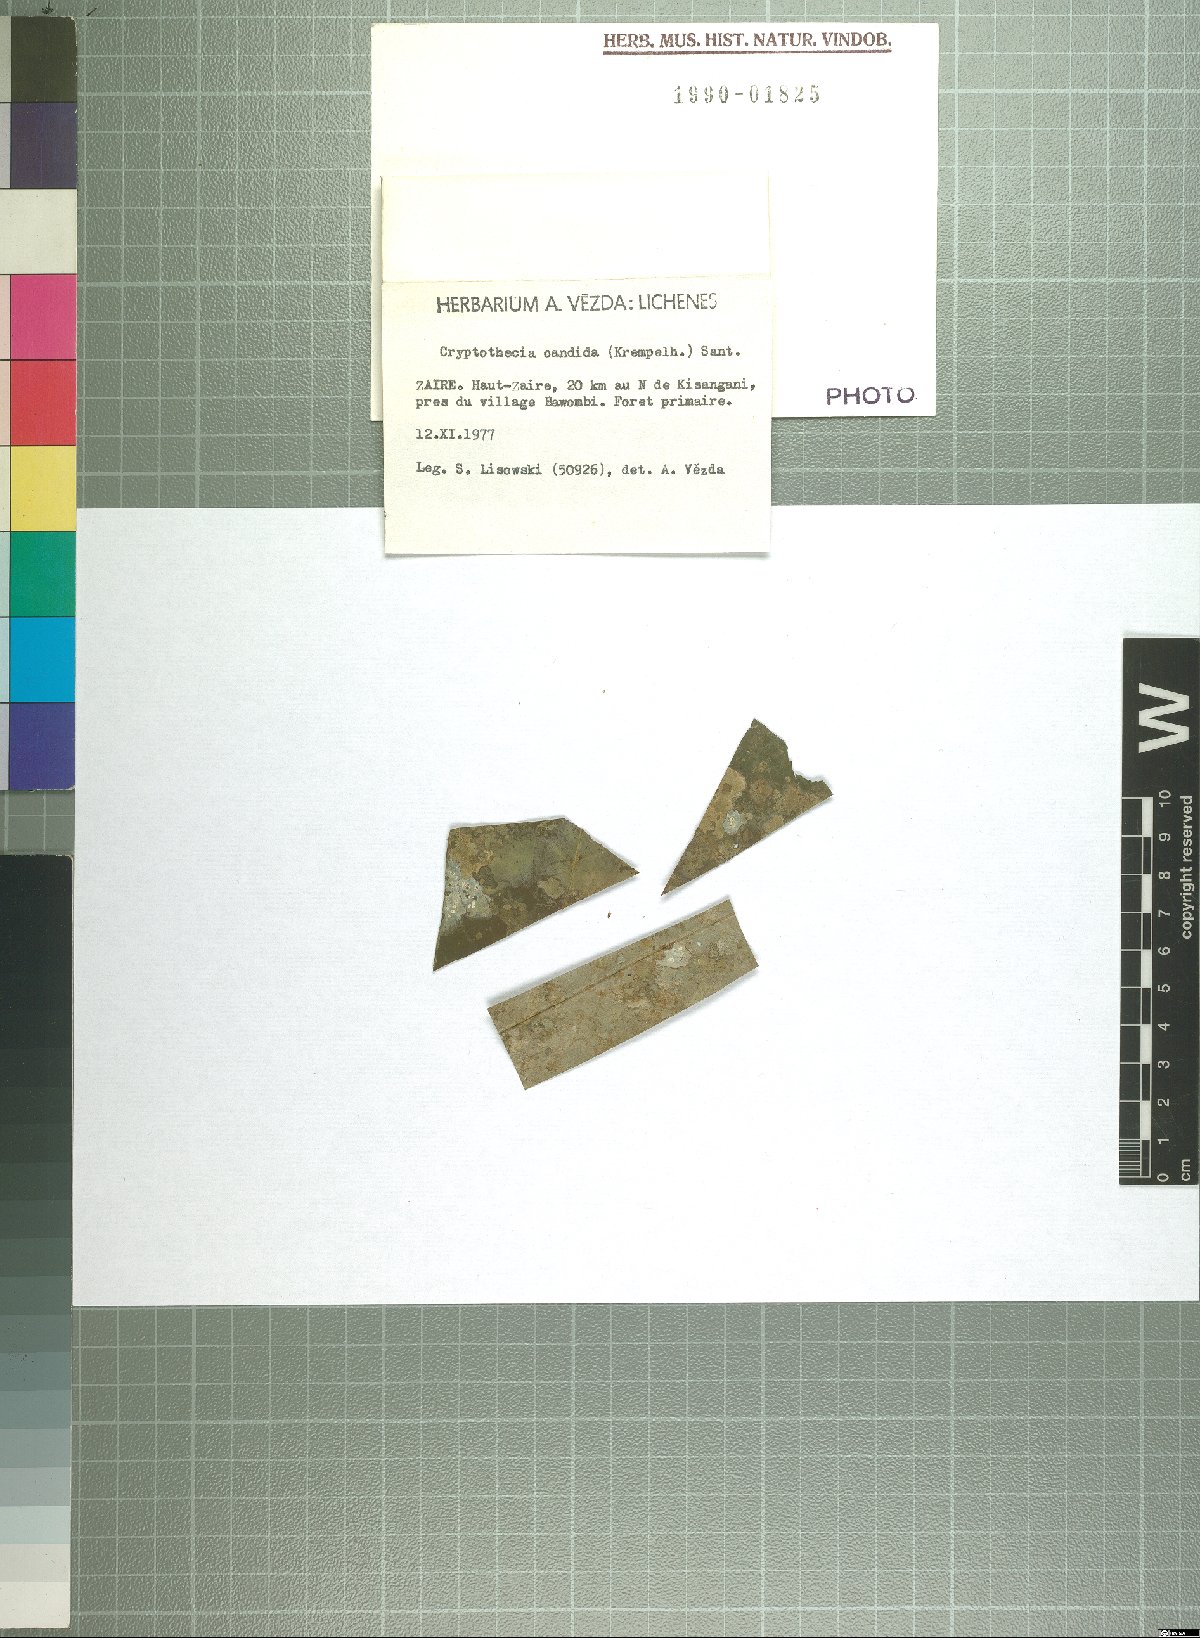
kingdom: Fungi
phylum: Ascomycota
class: Arthoniomycetes
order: Arthoniales
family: Arthoniaceae
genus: Cryptothecia
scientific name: Cryptothecia
